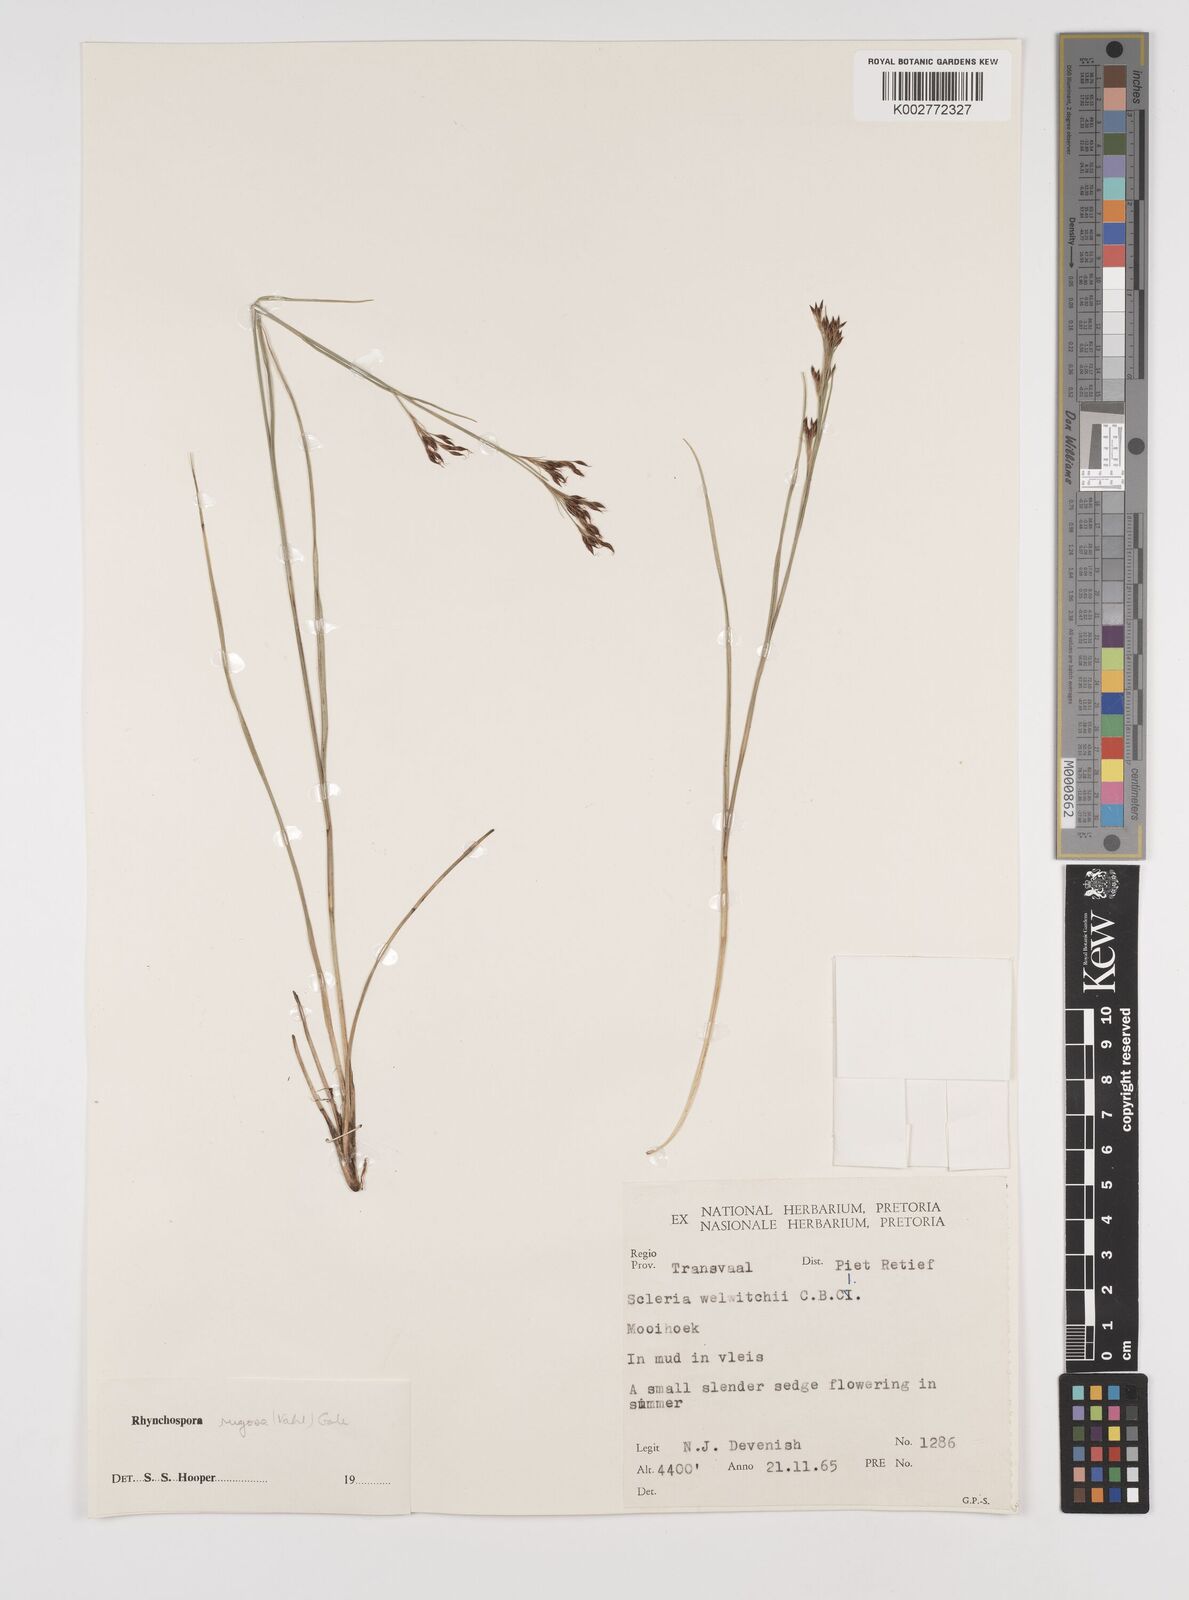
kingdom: Plantae
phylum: Tracheophyta
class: Liliopsida
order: Poales
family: Cyperaceae
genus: Rhynchospora
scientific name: Rhynchospora rugosa
